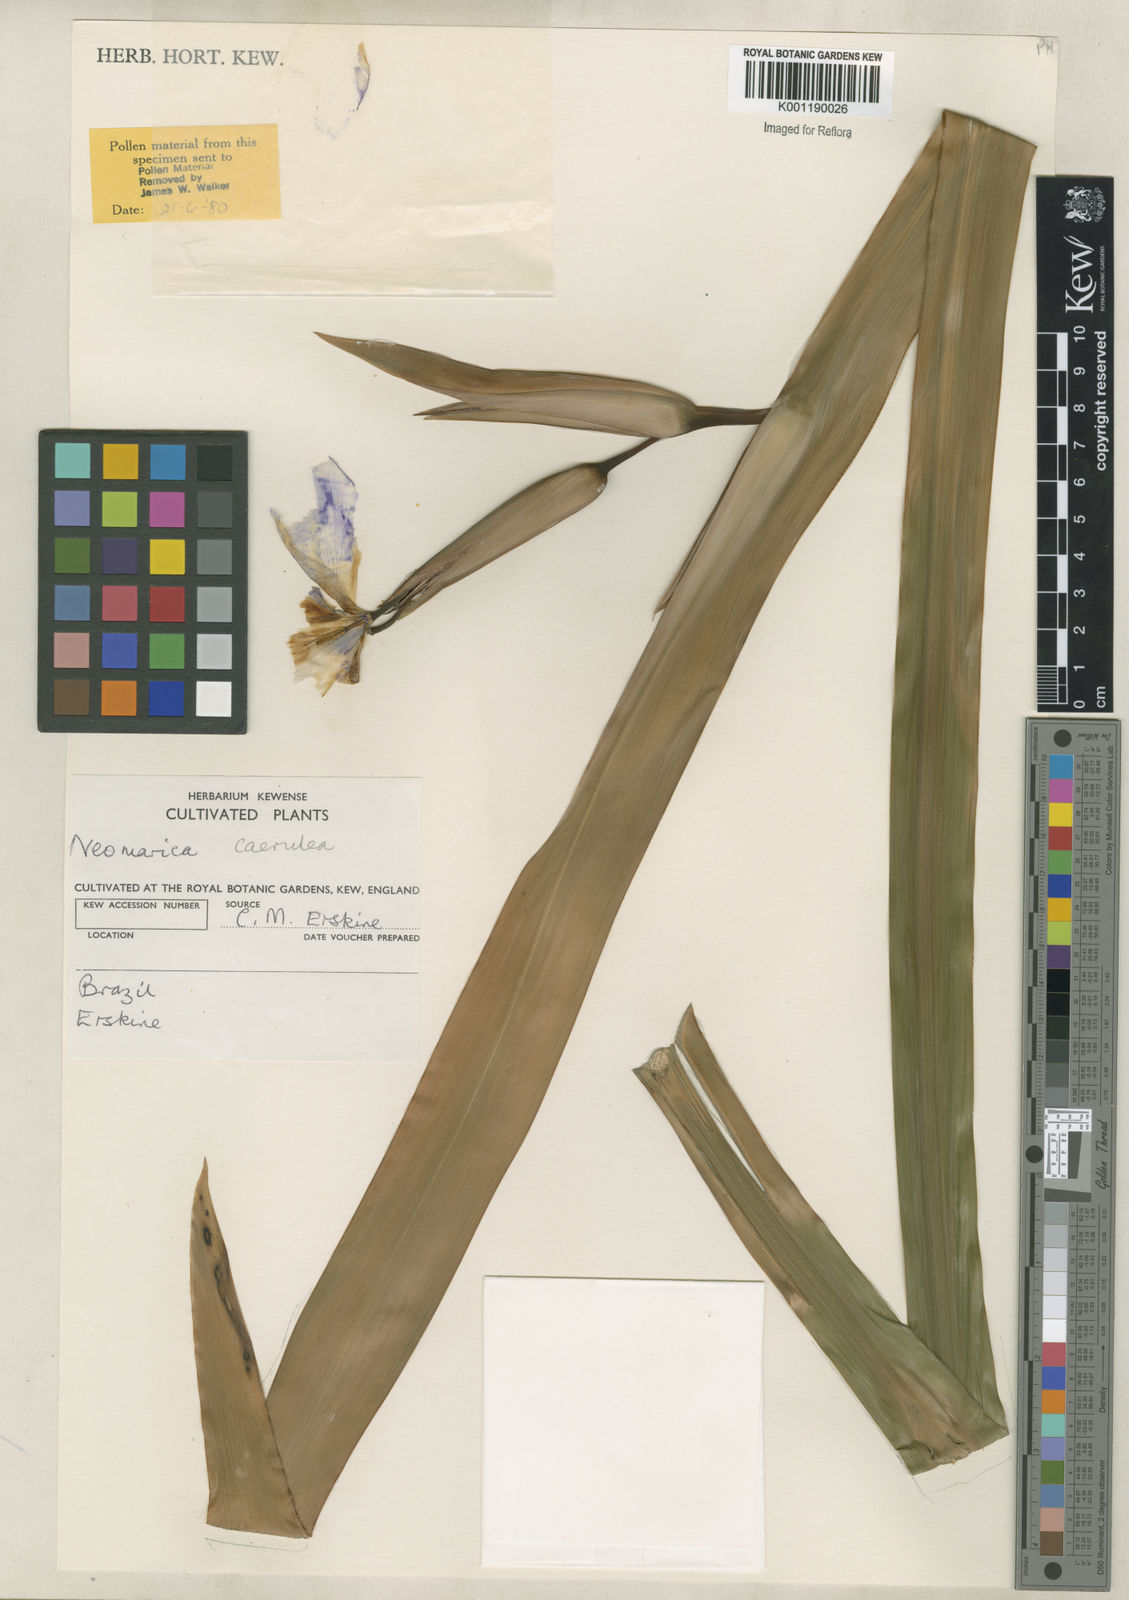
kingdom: Plantae
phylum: Tracheophyta
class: Liliopsida
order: Asparagales
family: Iridaceae
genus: Trimezia
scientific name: Trimezia
